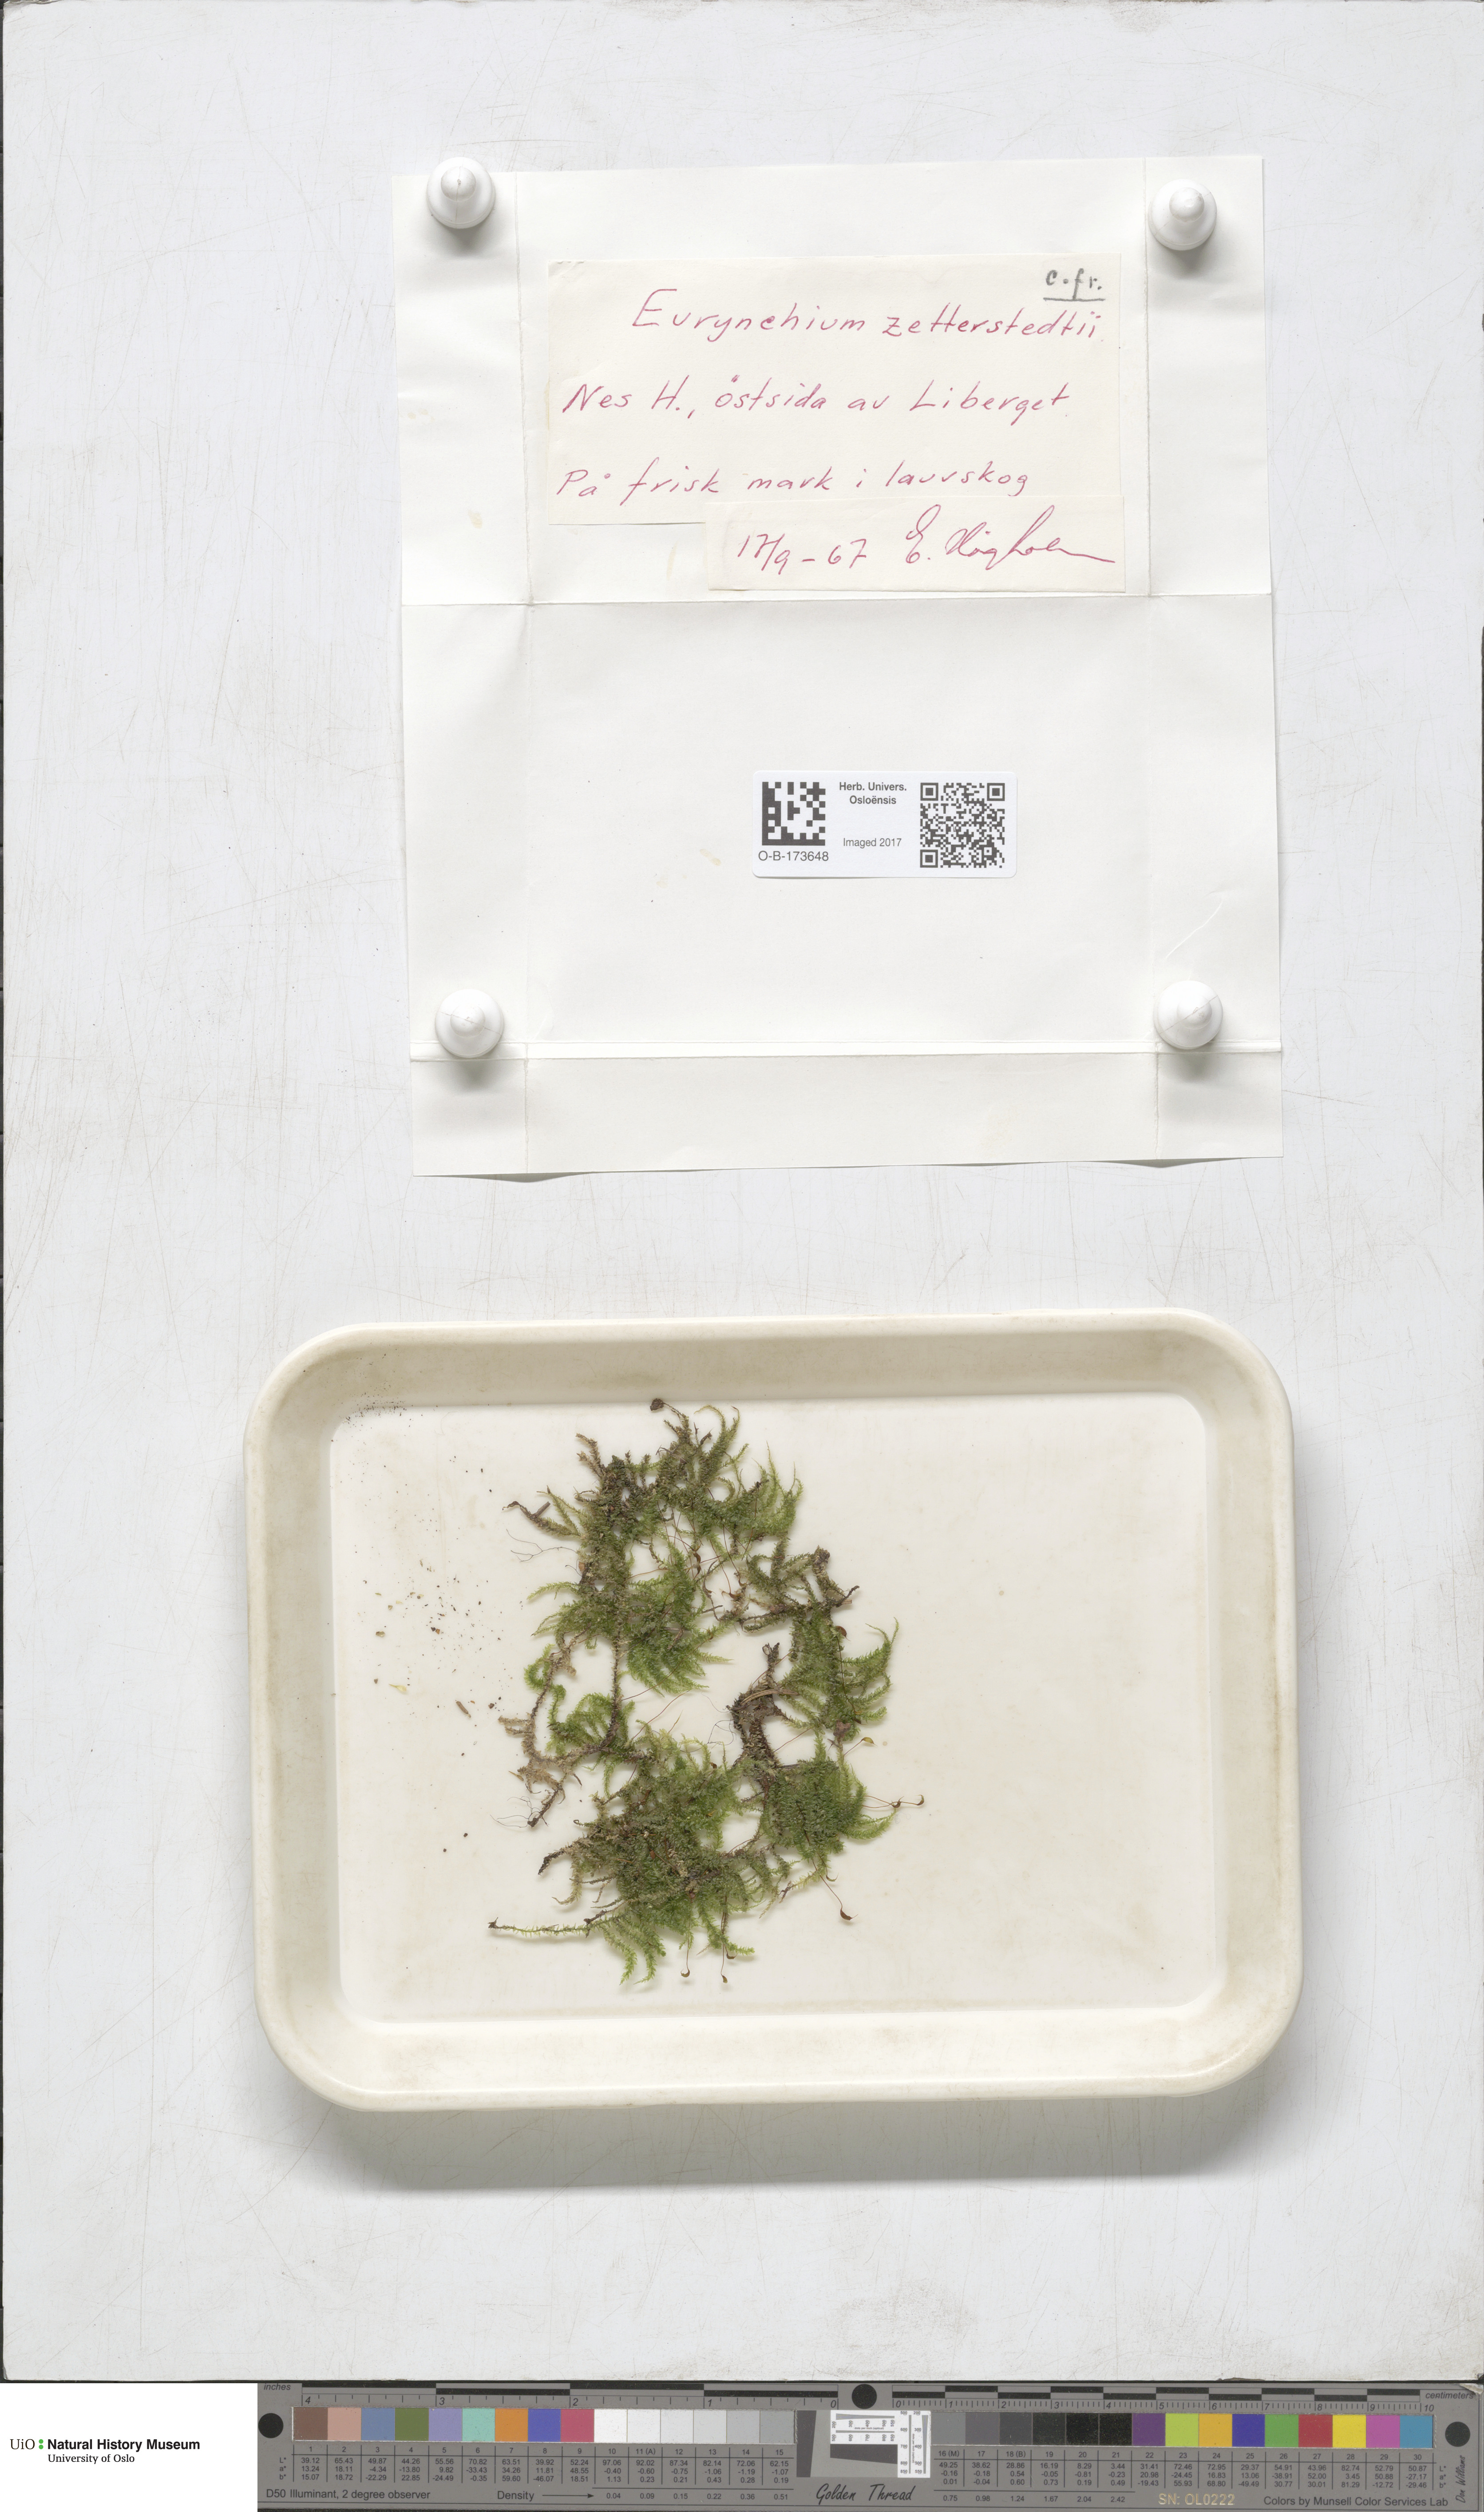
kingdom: Plantae
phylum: Bryophyta
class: Bryopsida
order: Hypnales
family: Brachytheciaceae
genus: Eurhynchium
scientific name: Eurhynchium angustirete
